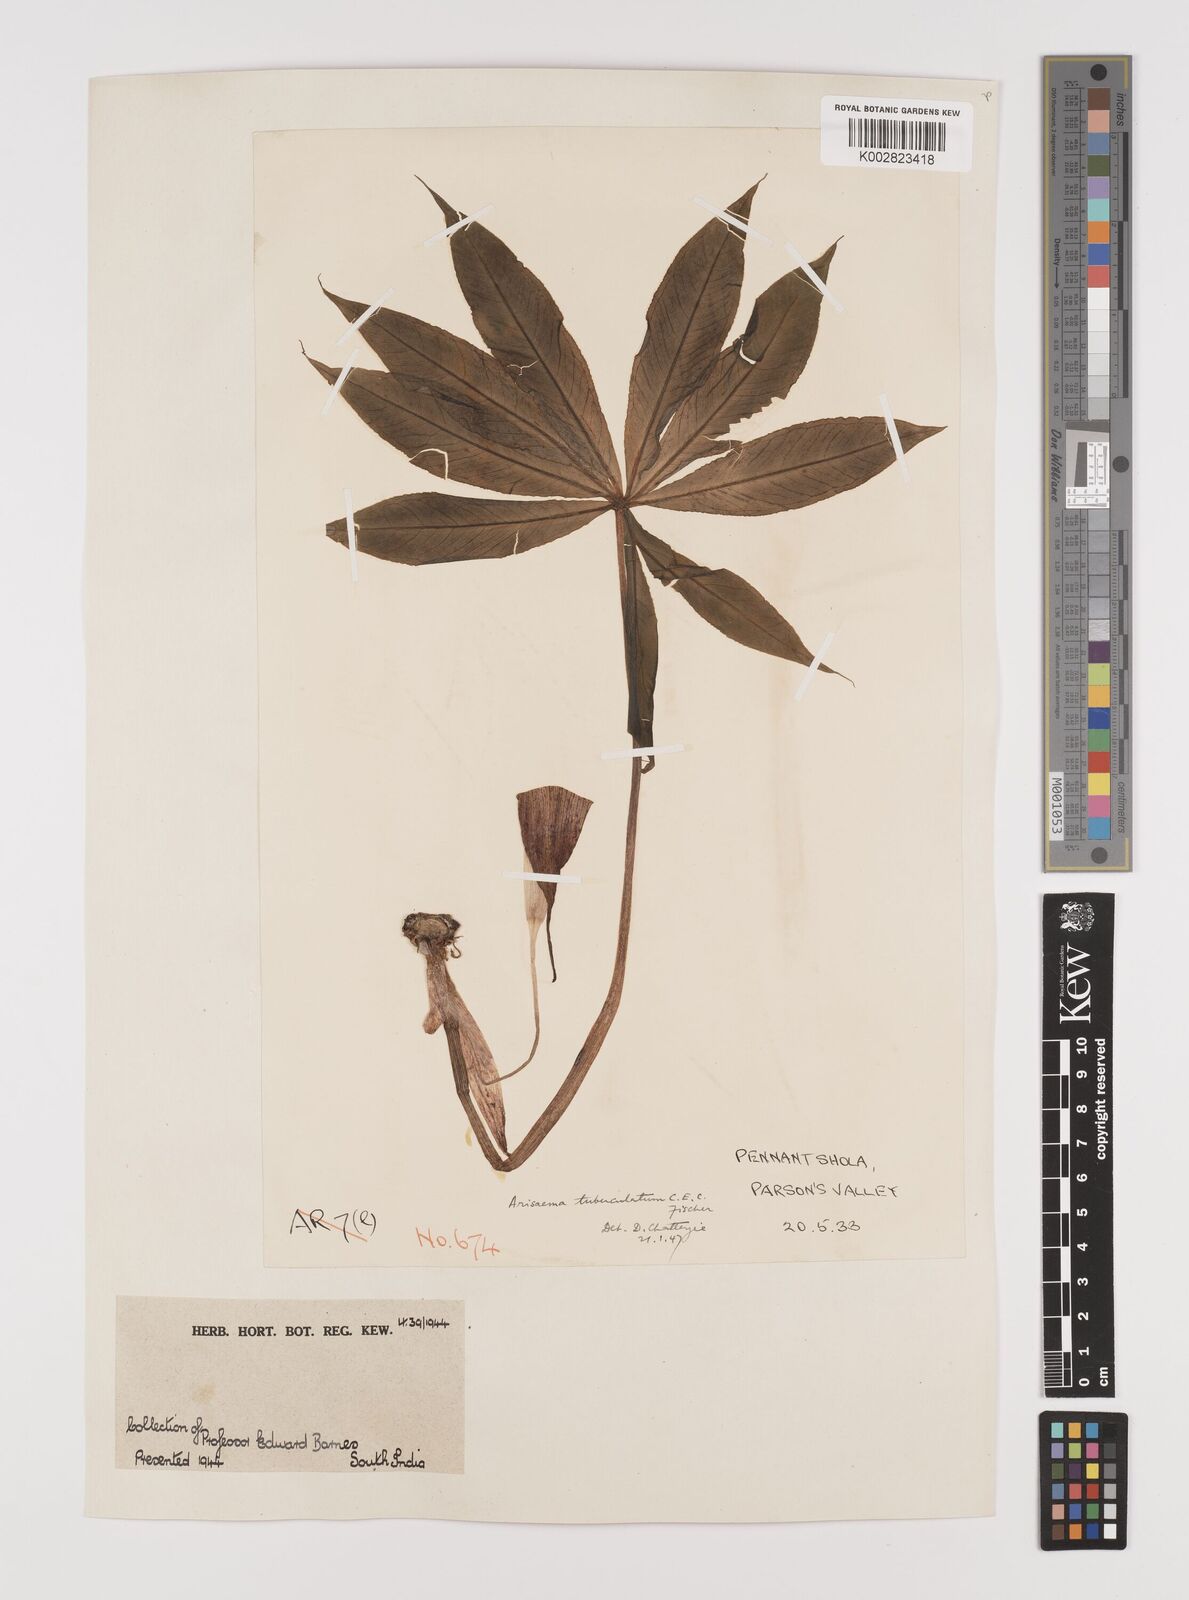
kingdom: Plantae
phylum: Tracheophyta
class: Liliopsida
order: Alismatales
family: Araceae
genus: Arisaema
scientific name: Arisaema tuberculatum
